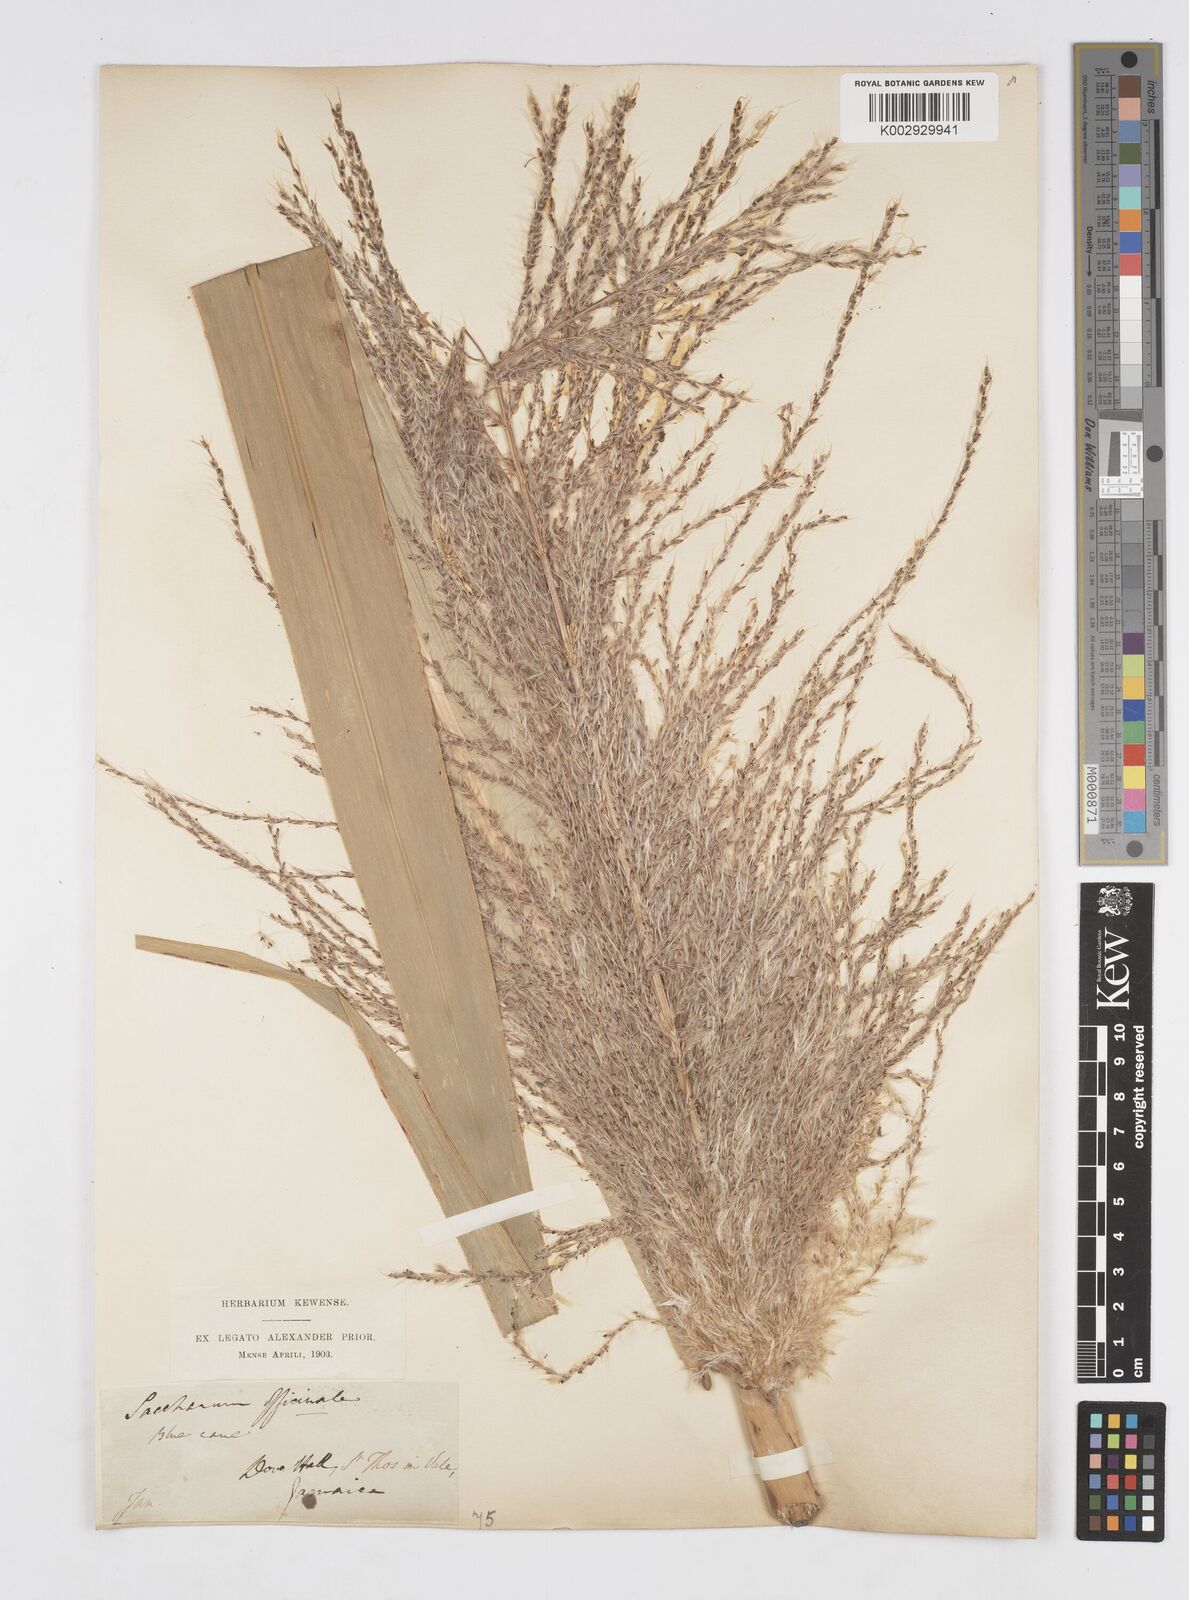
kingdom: Plantae
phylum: Tracheophyta
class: Liliopsida
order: Poales
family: Poaceae
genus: Saccharum
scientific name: Saccharum officinarum
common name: Sugarcane
